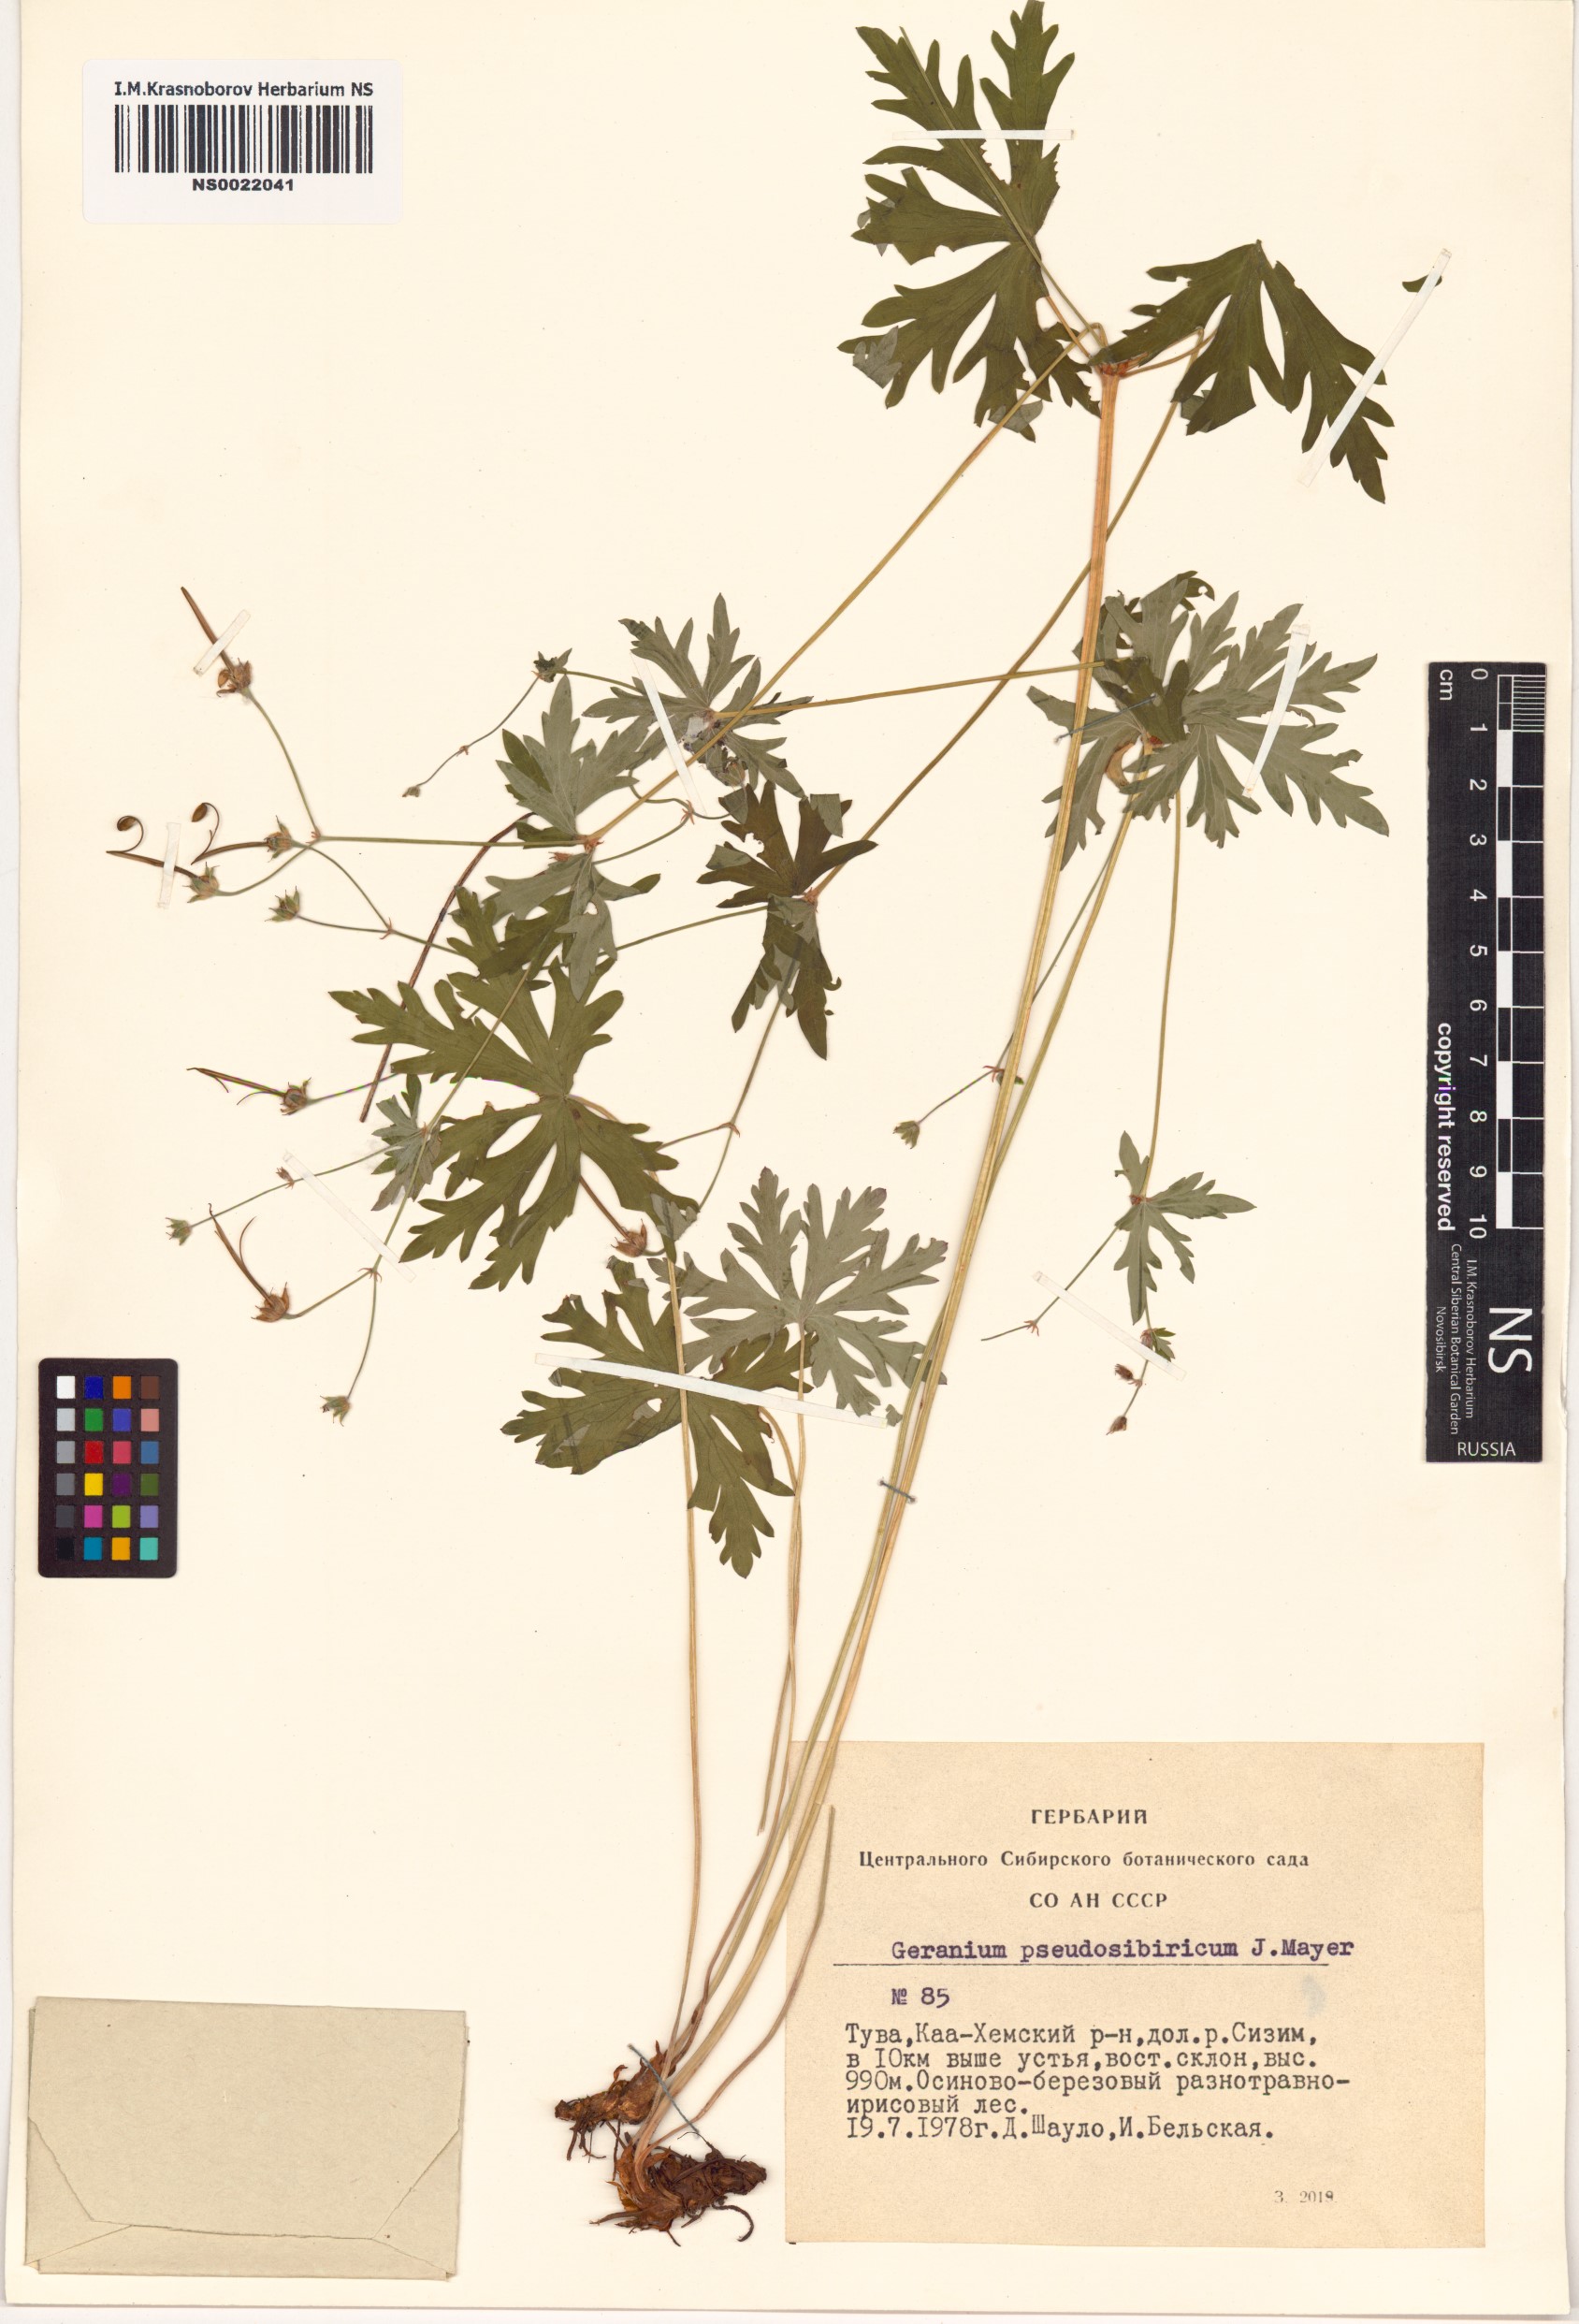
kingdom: Plantae
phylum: Tracheophyta
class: Magnoliopsida
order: Geraniales
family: Geraniaceae
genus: Geranium
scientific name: Geranium pseudosibiricum
